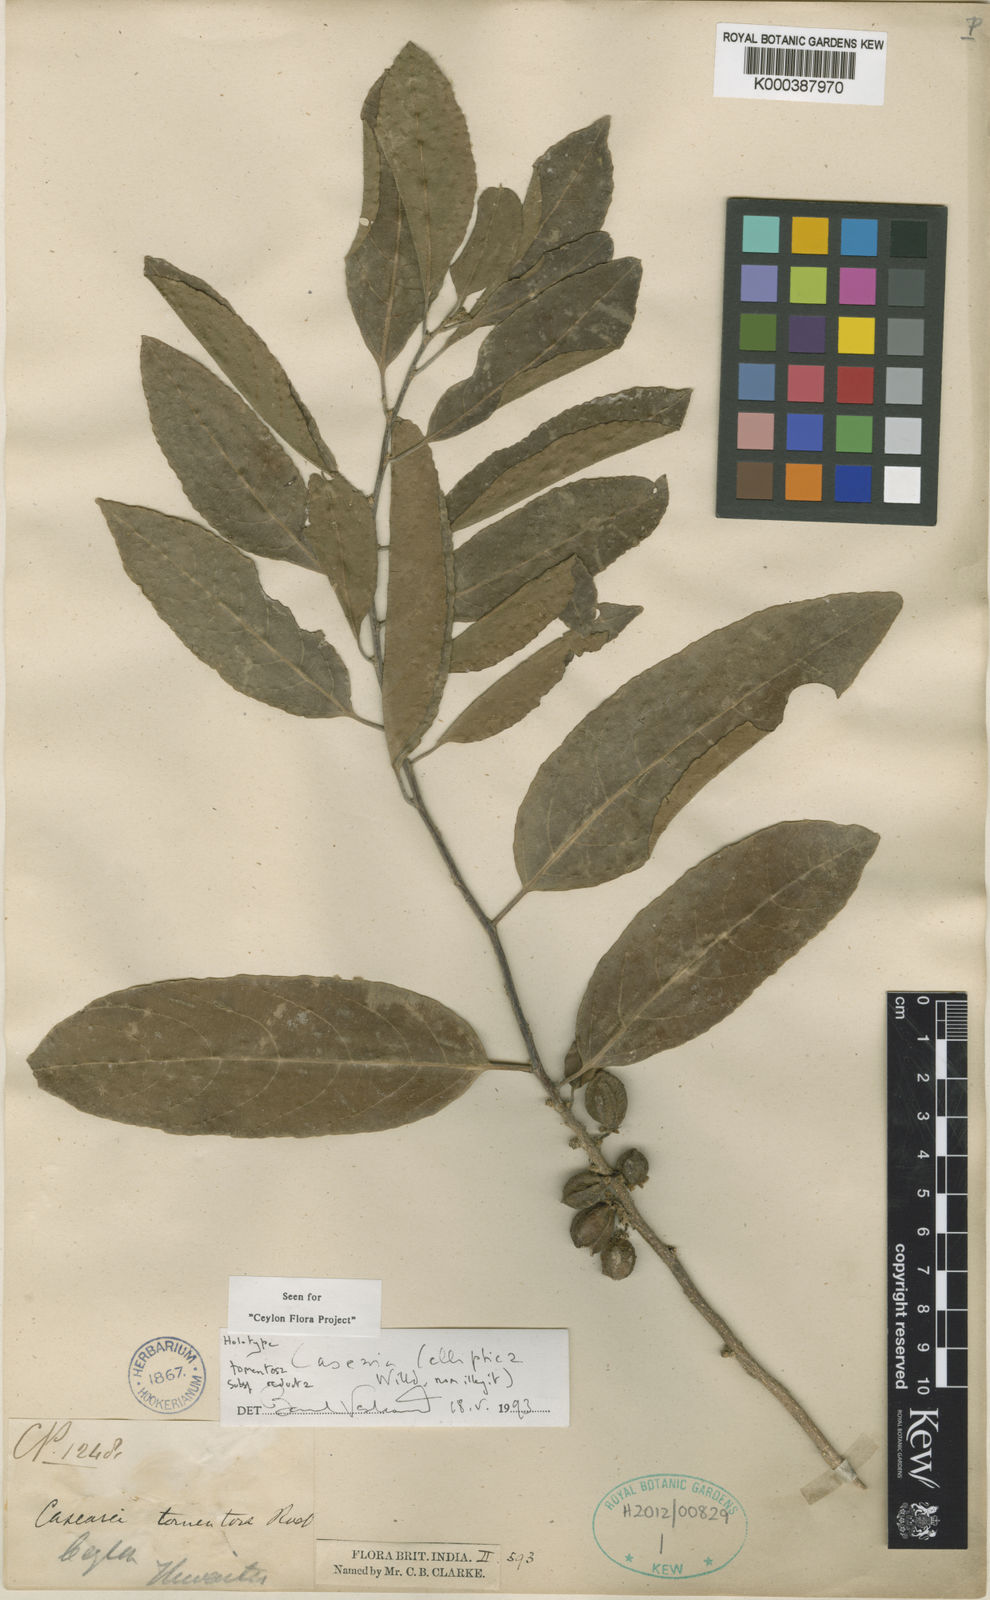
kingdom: Plantae
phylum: Tracheophyta
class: Magnoliopsida
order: Malpighiales
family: Salicaceae
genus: Casearia
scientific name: Casearia tomentosa
